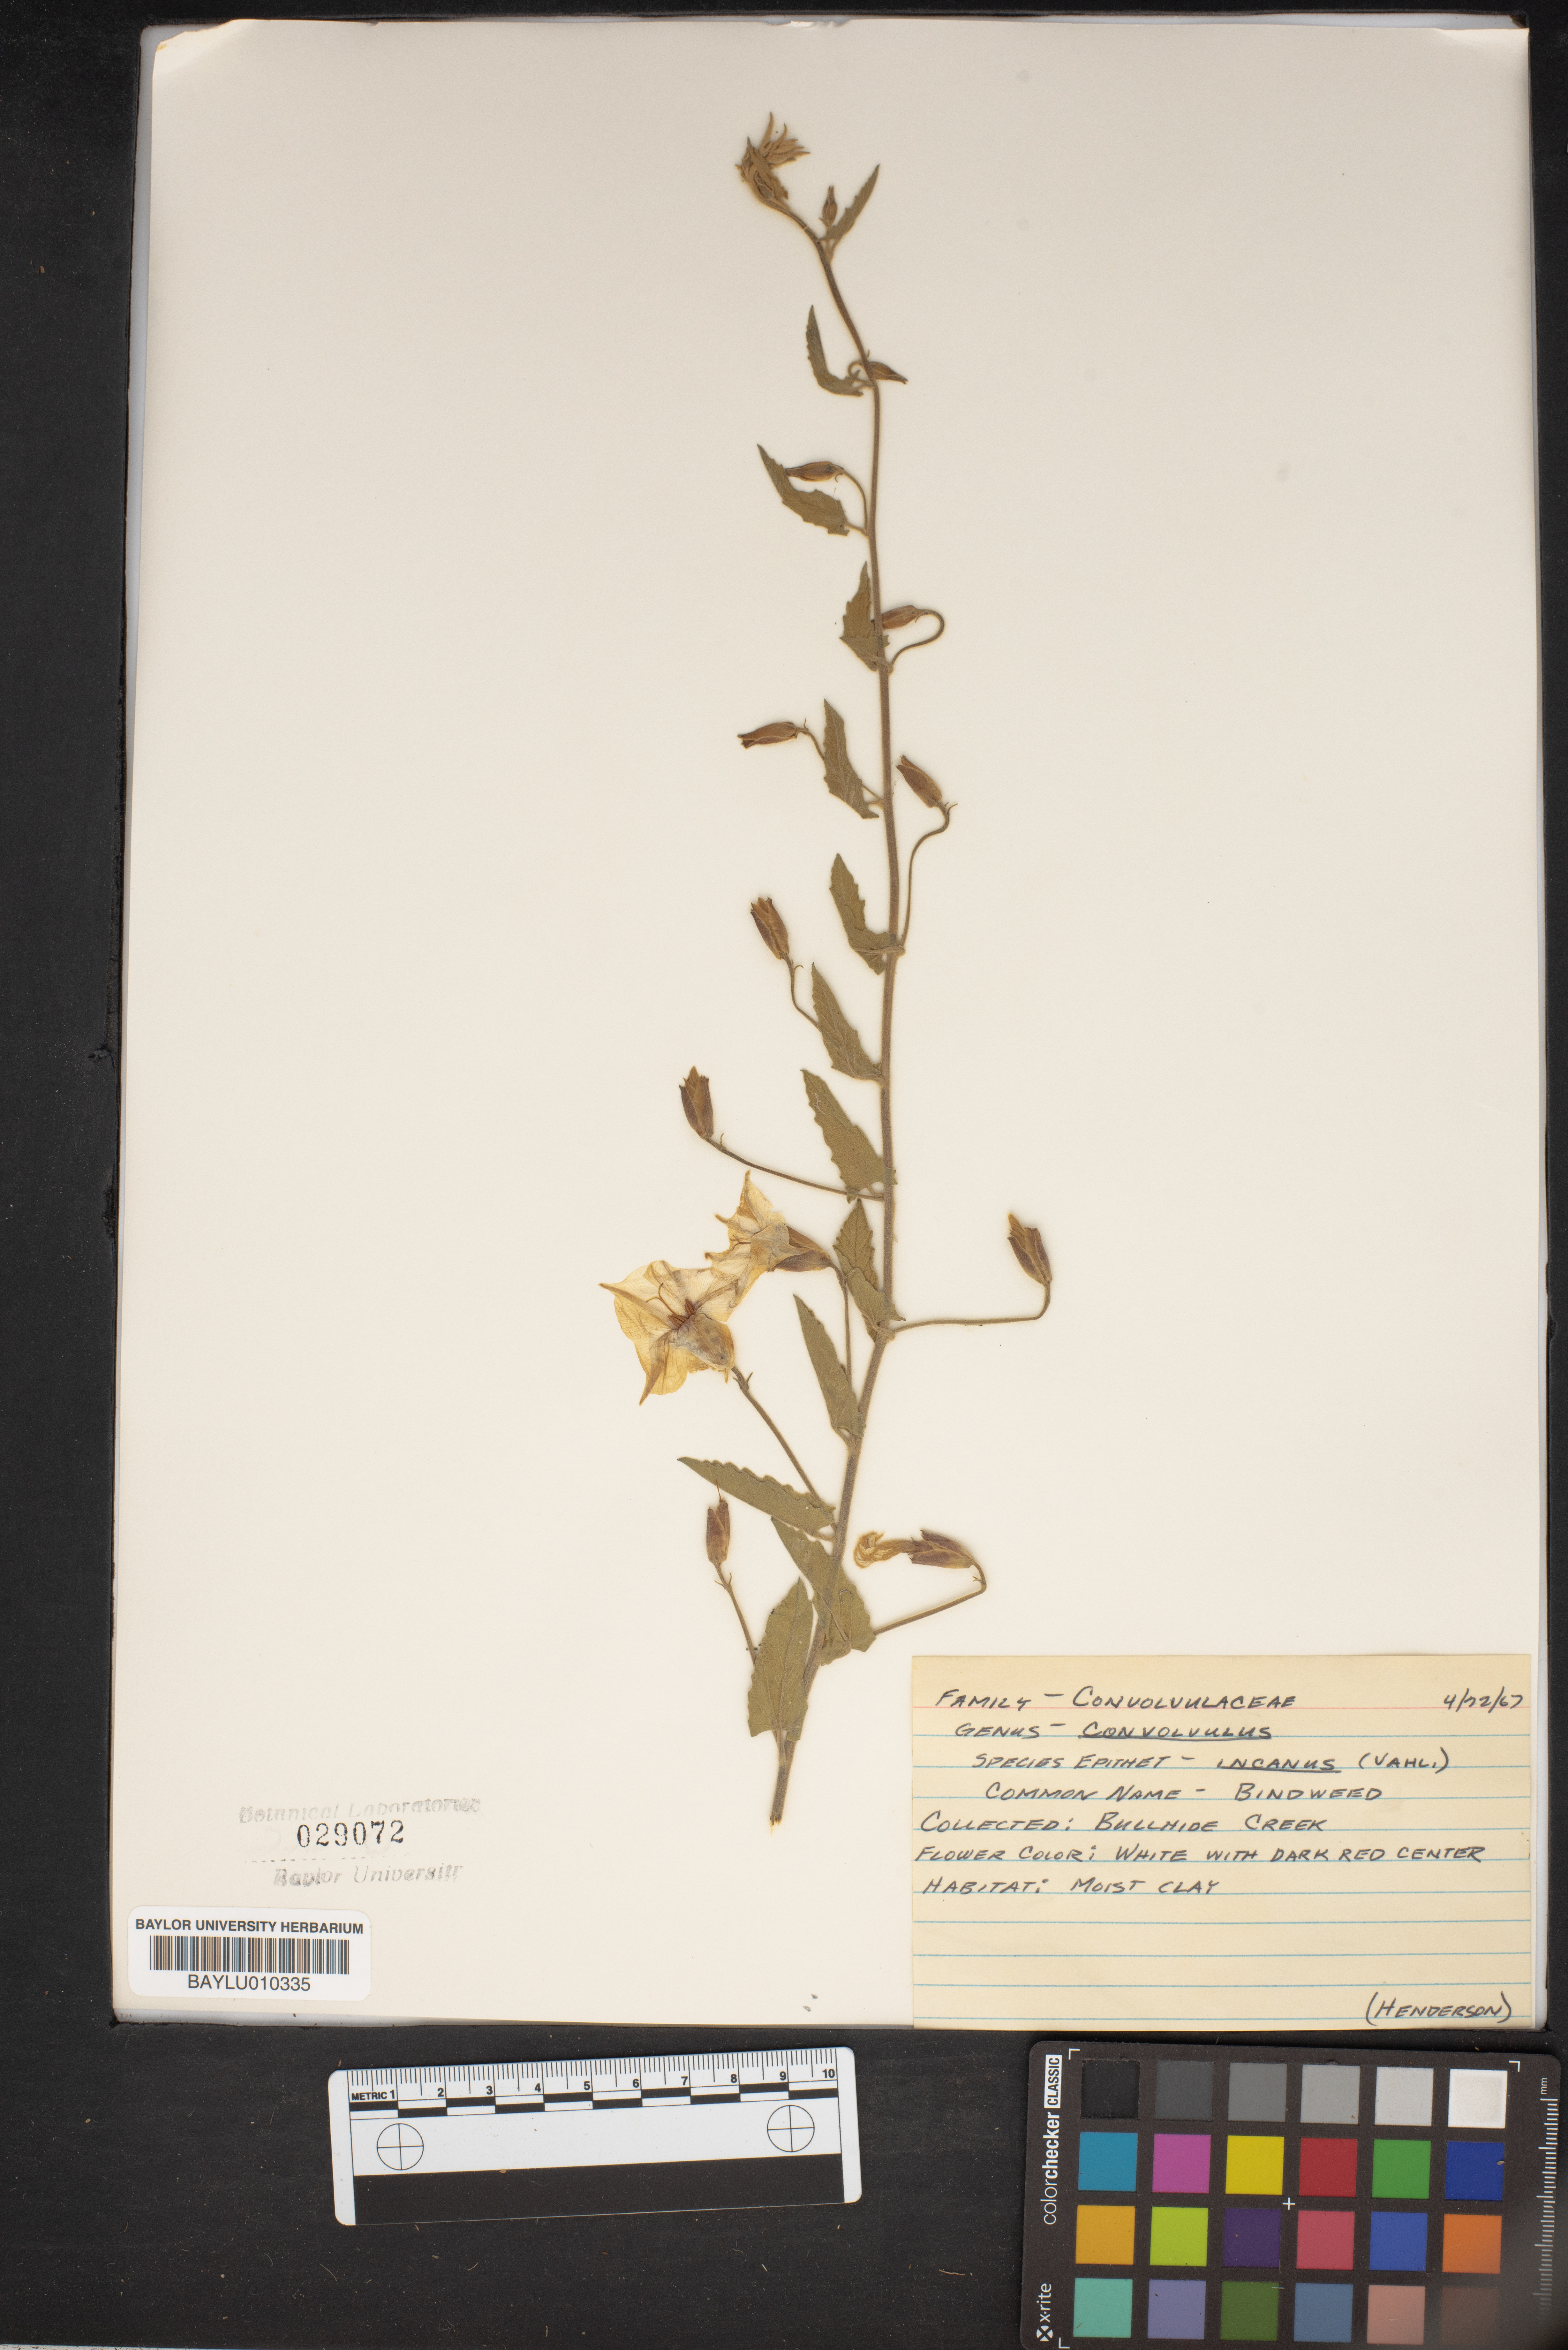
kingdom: Plantae
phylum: Tracheophyta
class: Magnoliopsida
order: Solanales
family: Convolvulaceae
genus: Convolvulus
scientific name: Convolvulus hermanniae
